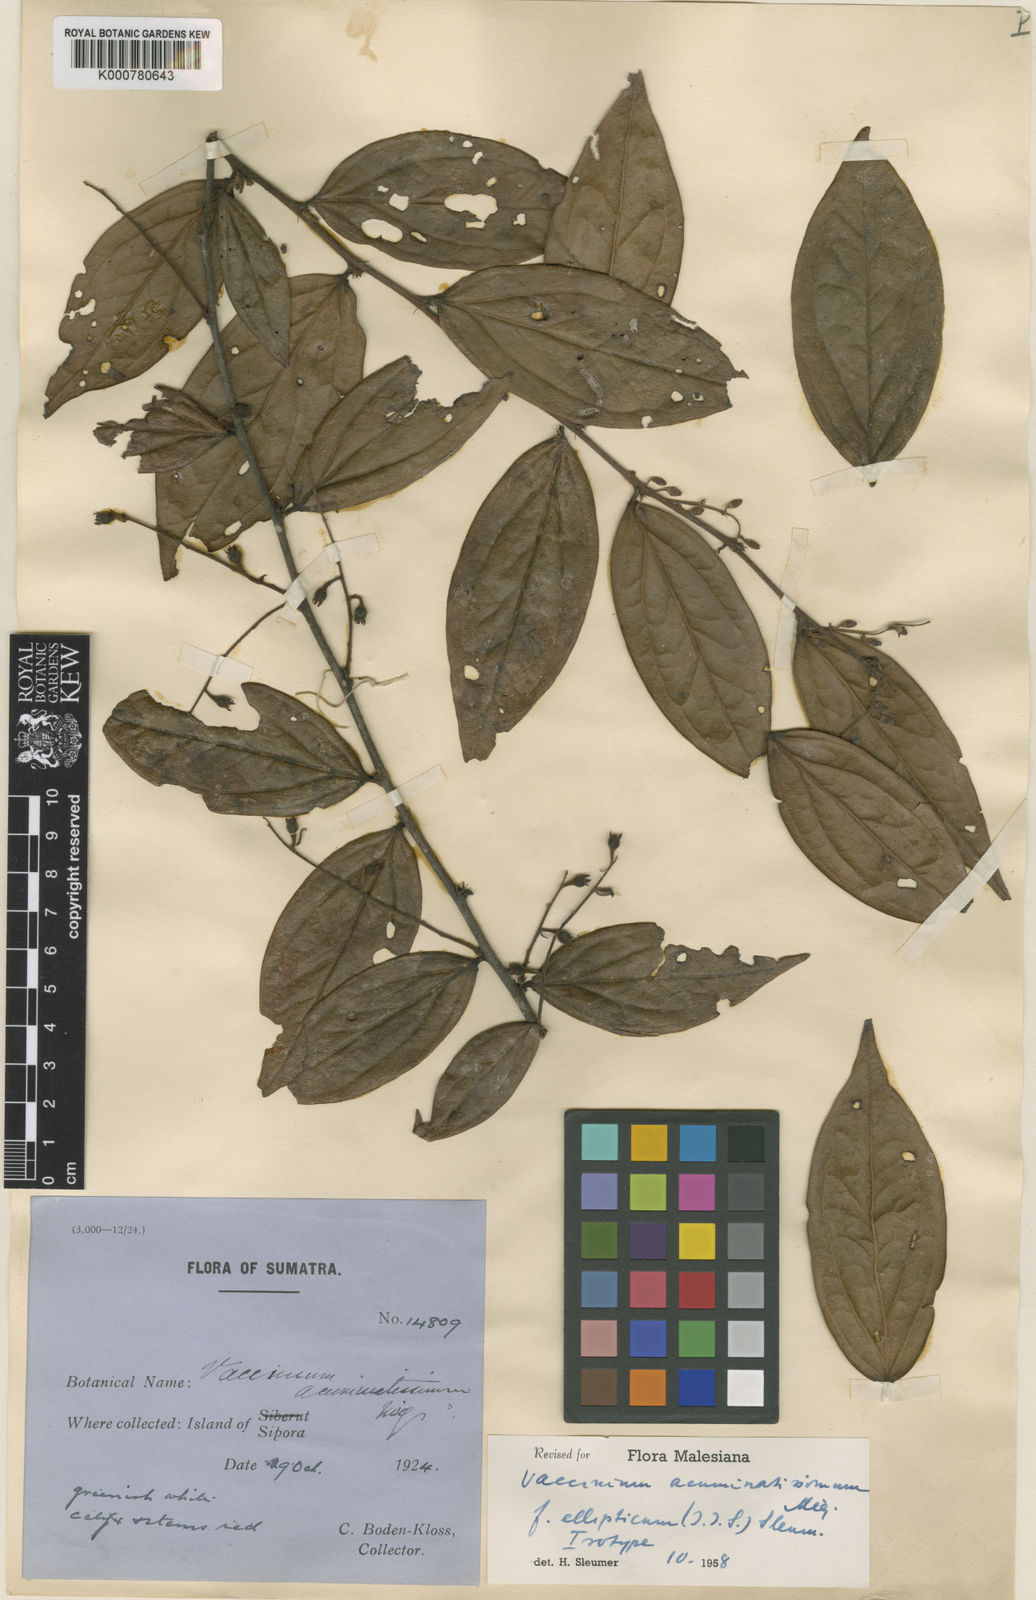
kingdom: Plantae
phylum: Tracheophyta
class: Magnoliopsida
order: Ericales
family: Ericaceae
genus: Rigiolepis
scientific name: Rigiolepis lanceolata
